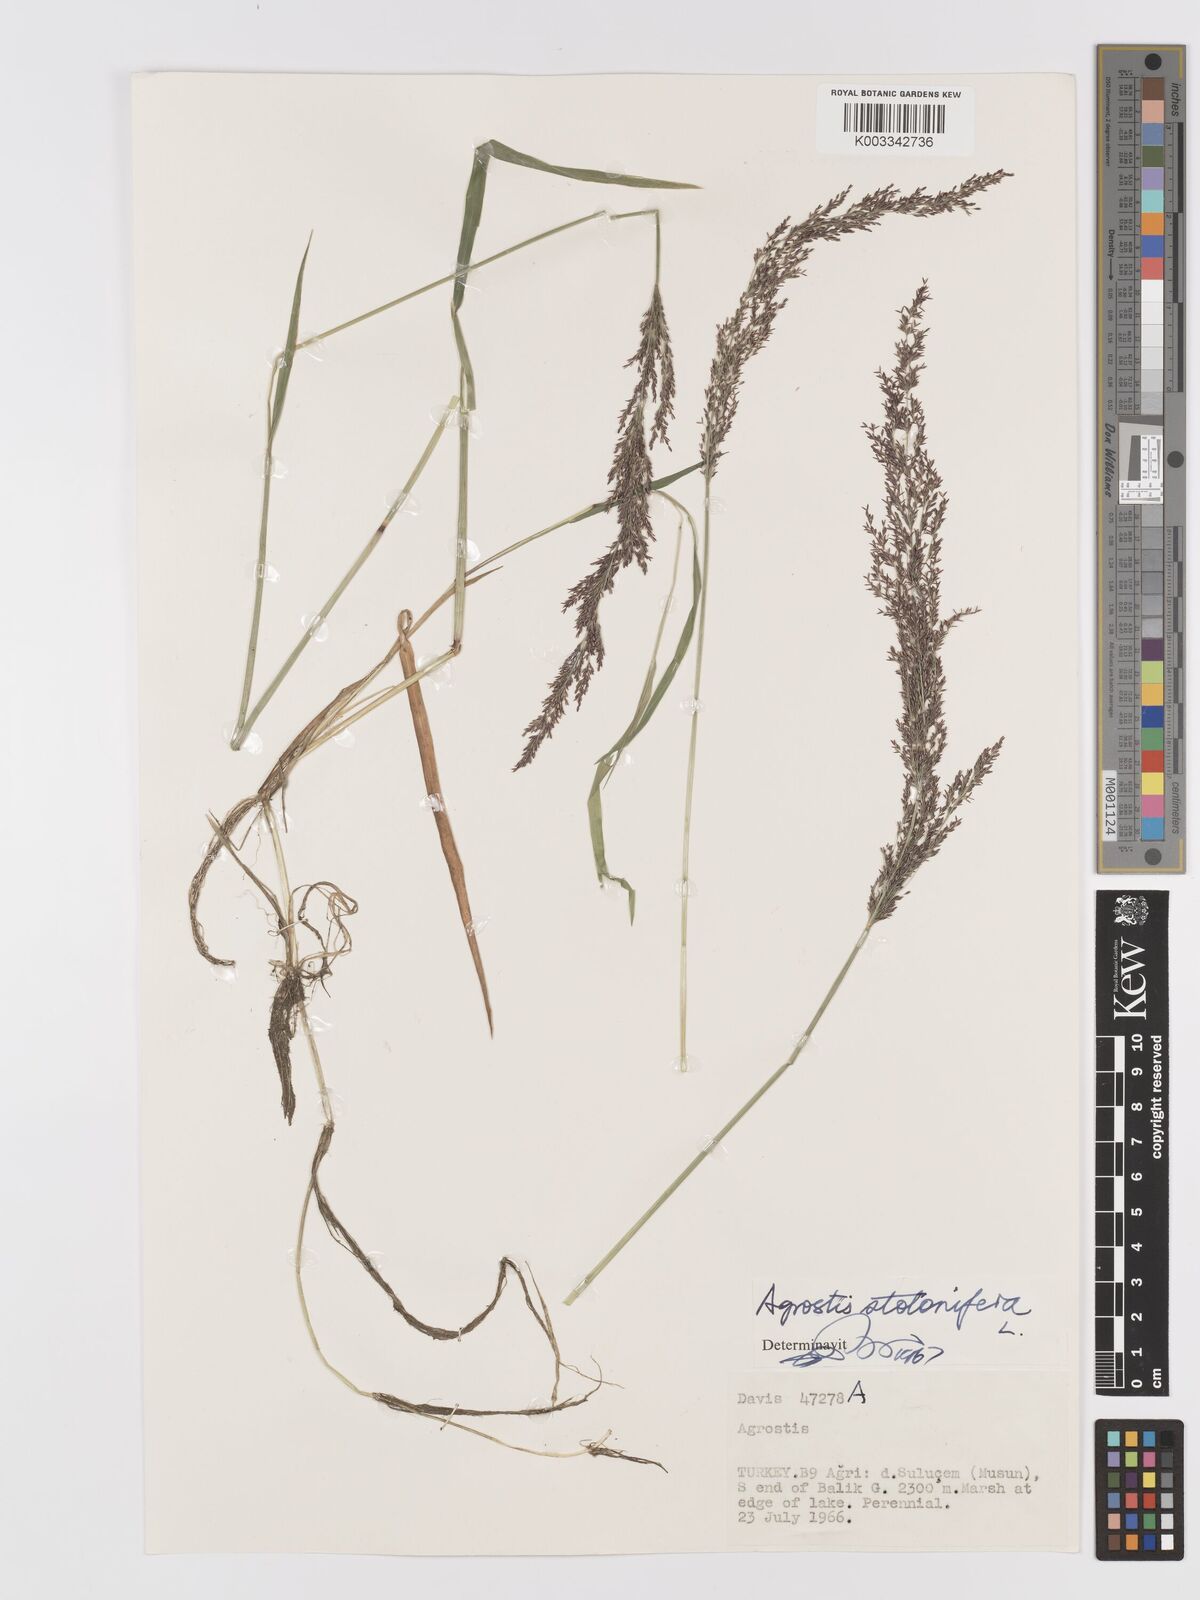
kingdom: Plantae
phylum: Tracheophyta
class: Liliopsida
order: Poales
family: Poaceae
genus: Agrostis
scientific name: Agrostis stolonifera
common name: Creeping bentgrass
